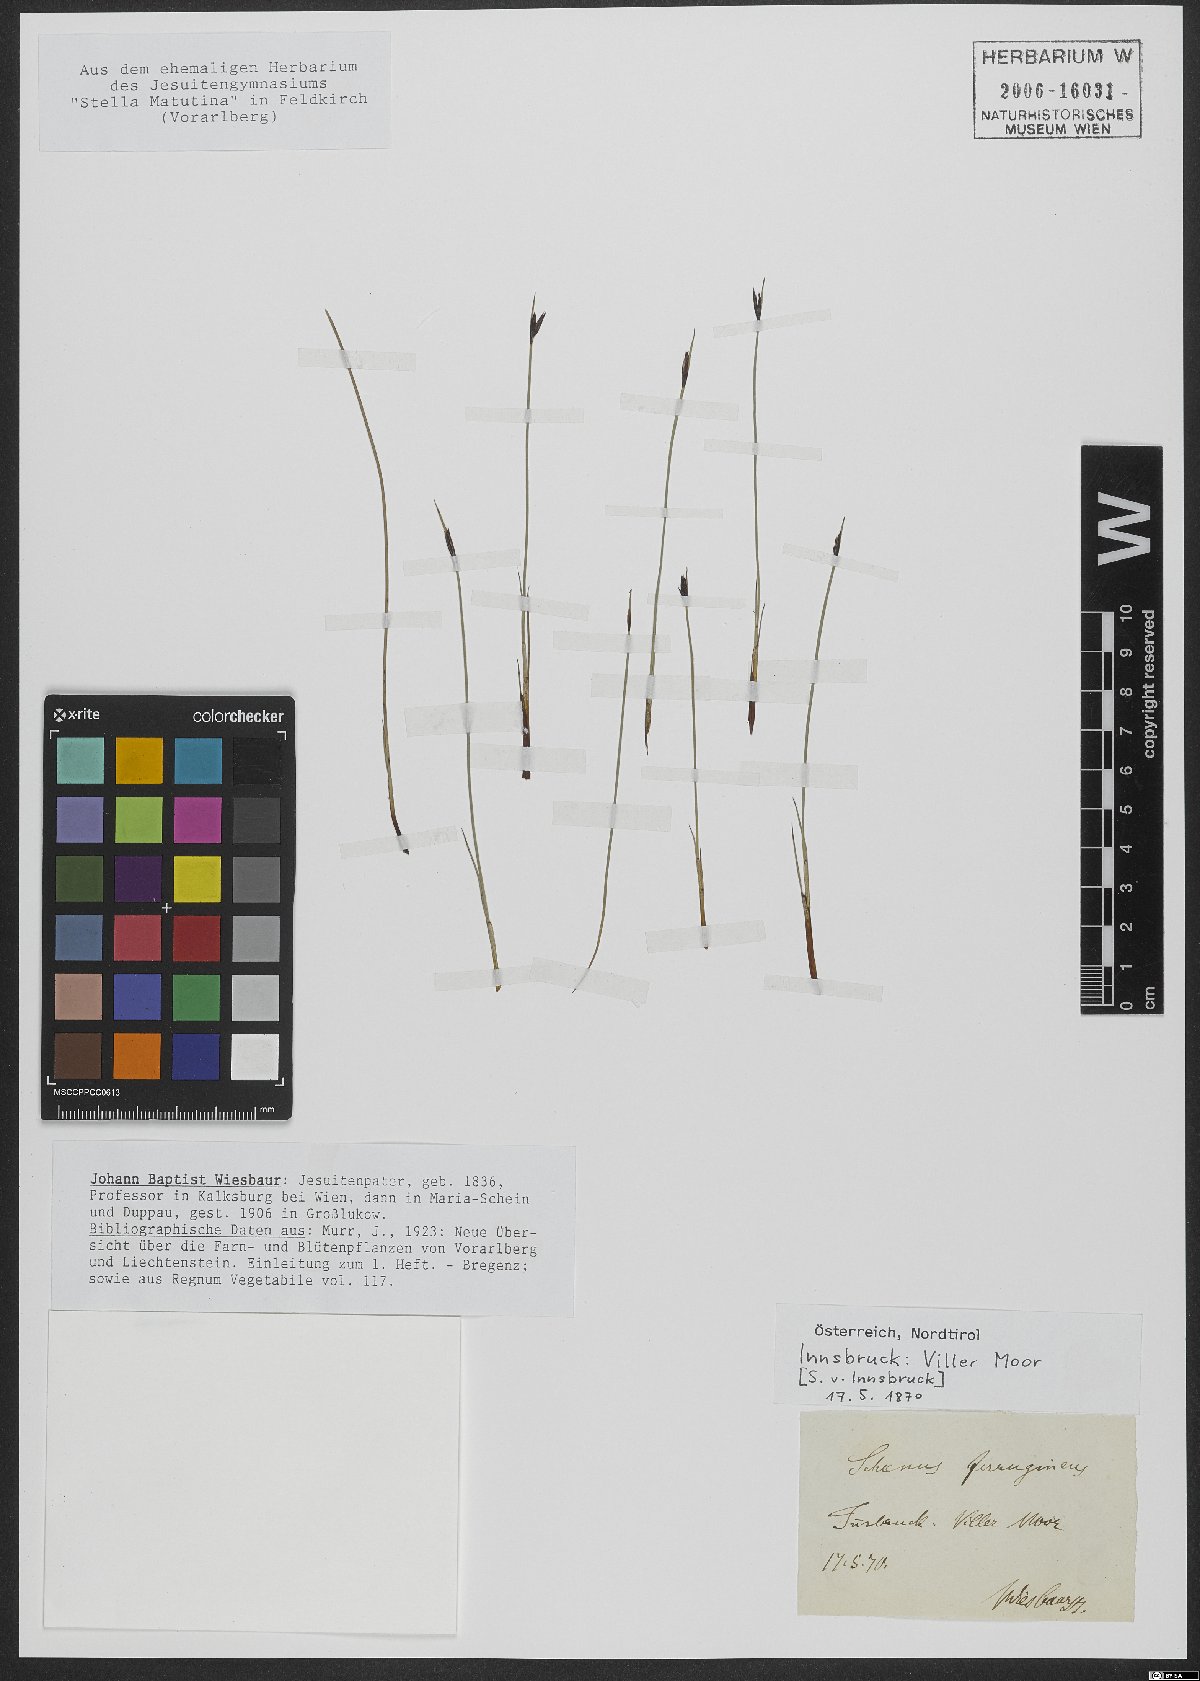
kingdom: Plantae
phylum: Tracheophyta
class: Liliopsida
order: Poales
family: Cyperaceae
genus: Schoenus
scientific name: Schoenus ferrugineus
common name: Brown bog-rush
